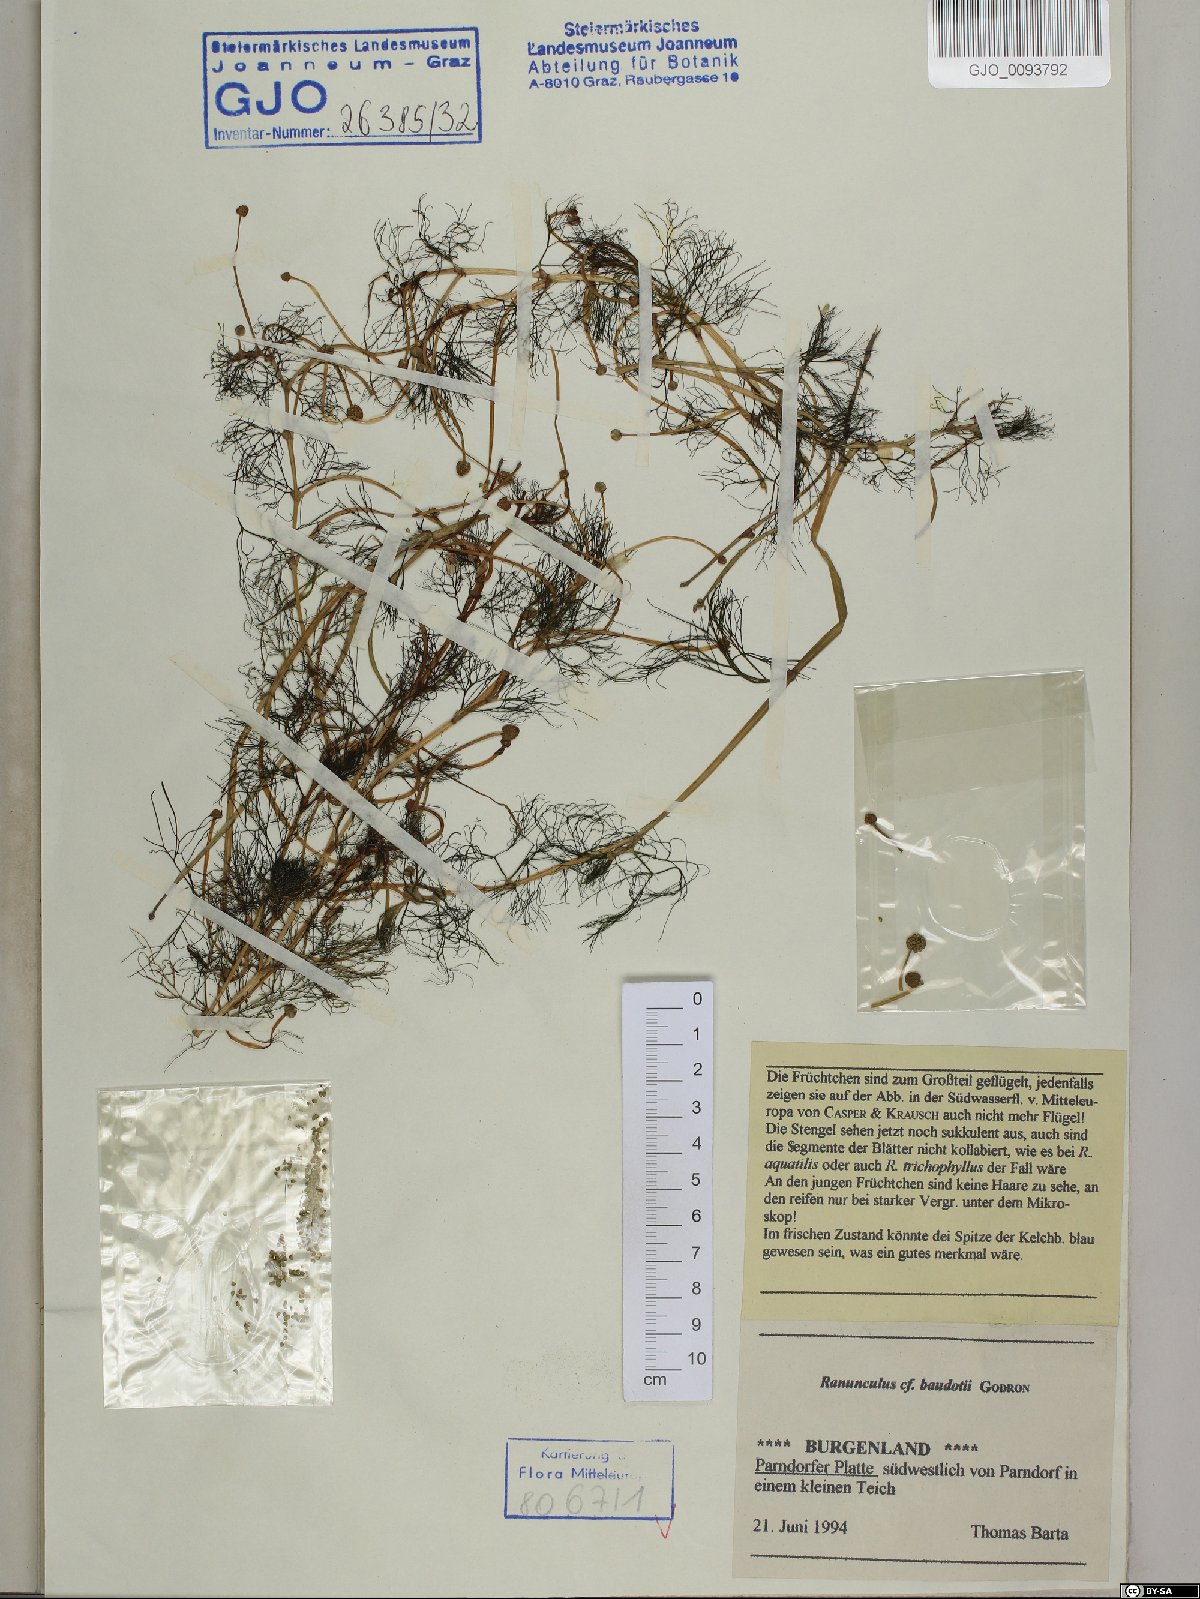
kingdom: Plantae
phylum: Tracheophyta
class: Magnoliopsida
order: Ranunculales
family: Ranunculaceae
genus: Ranunculus
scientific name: Ranunculus peltatus
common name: Pond water-crowfoot
